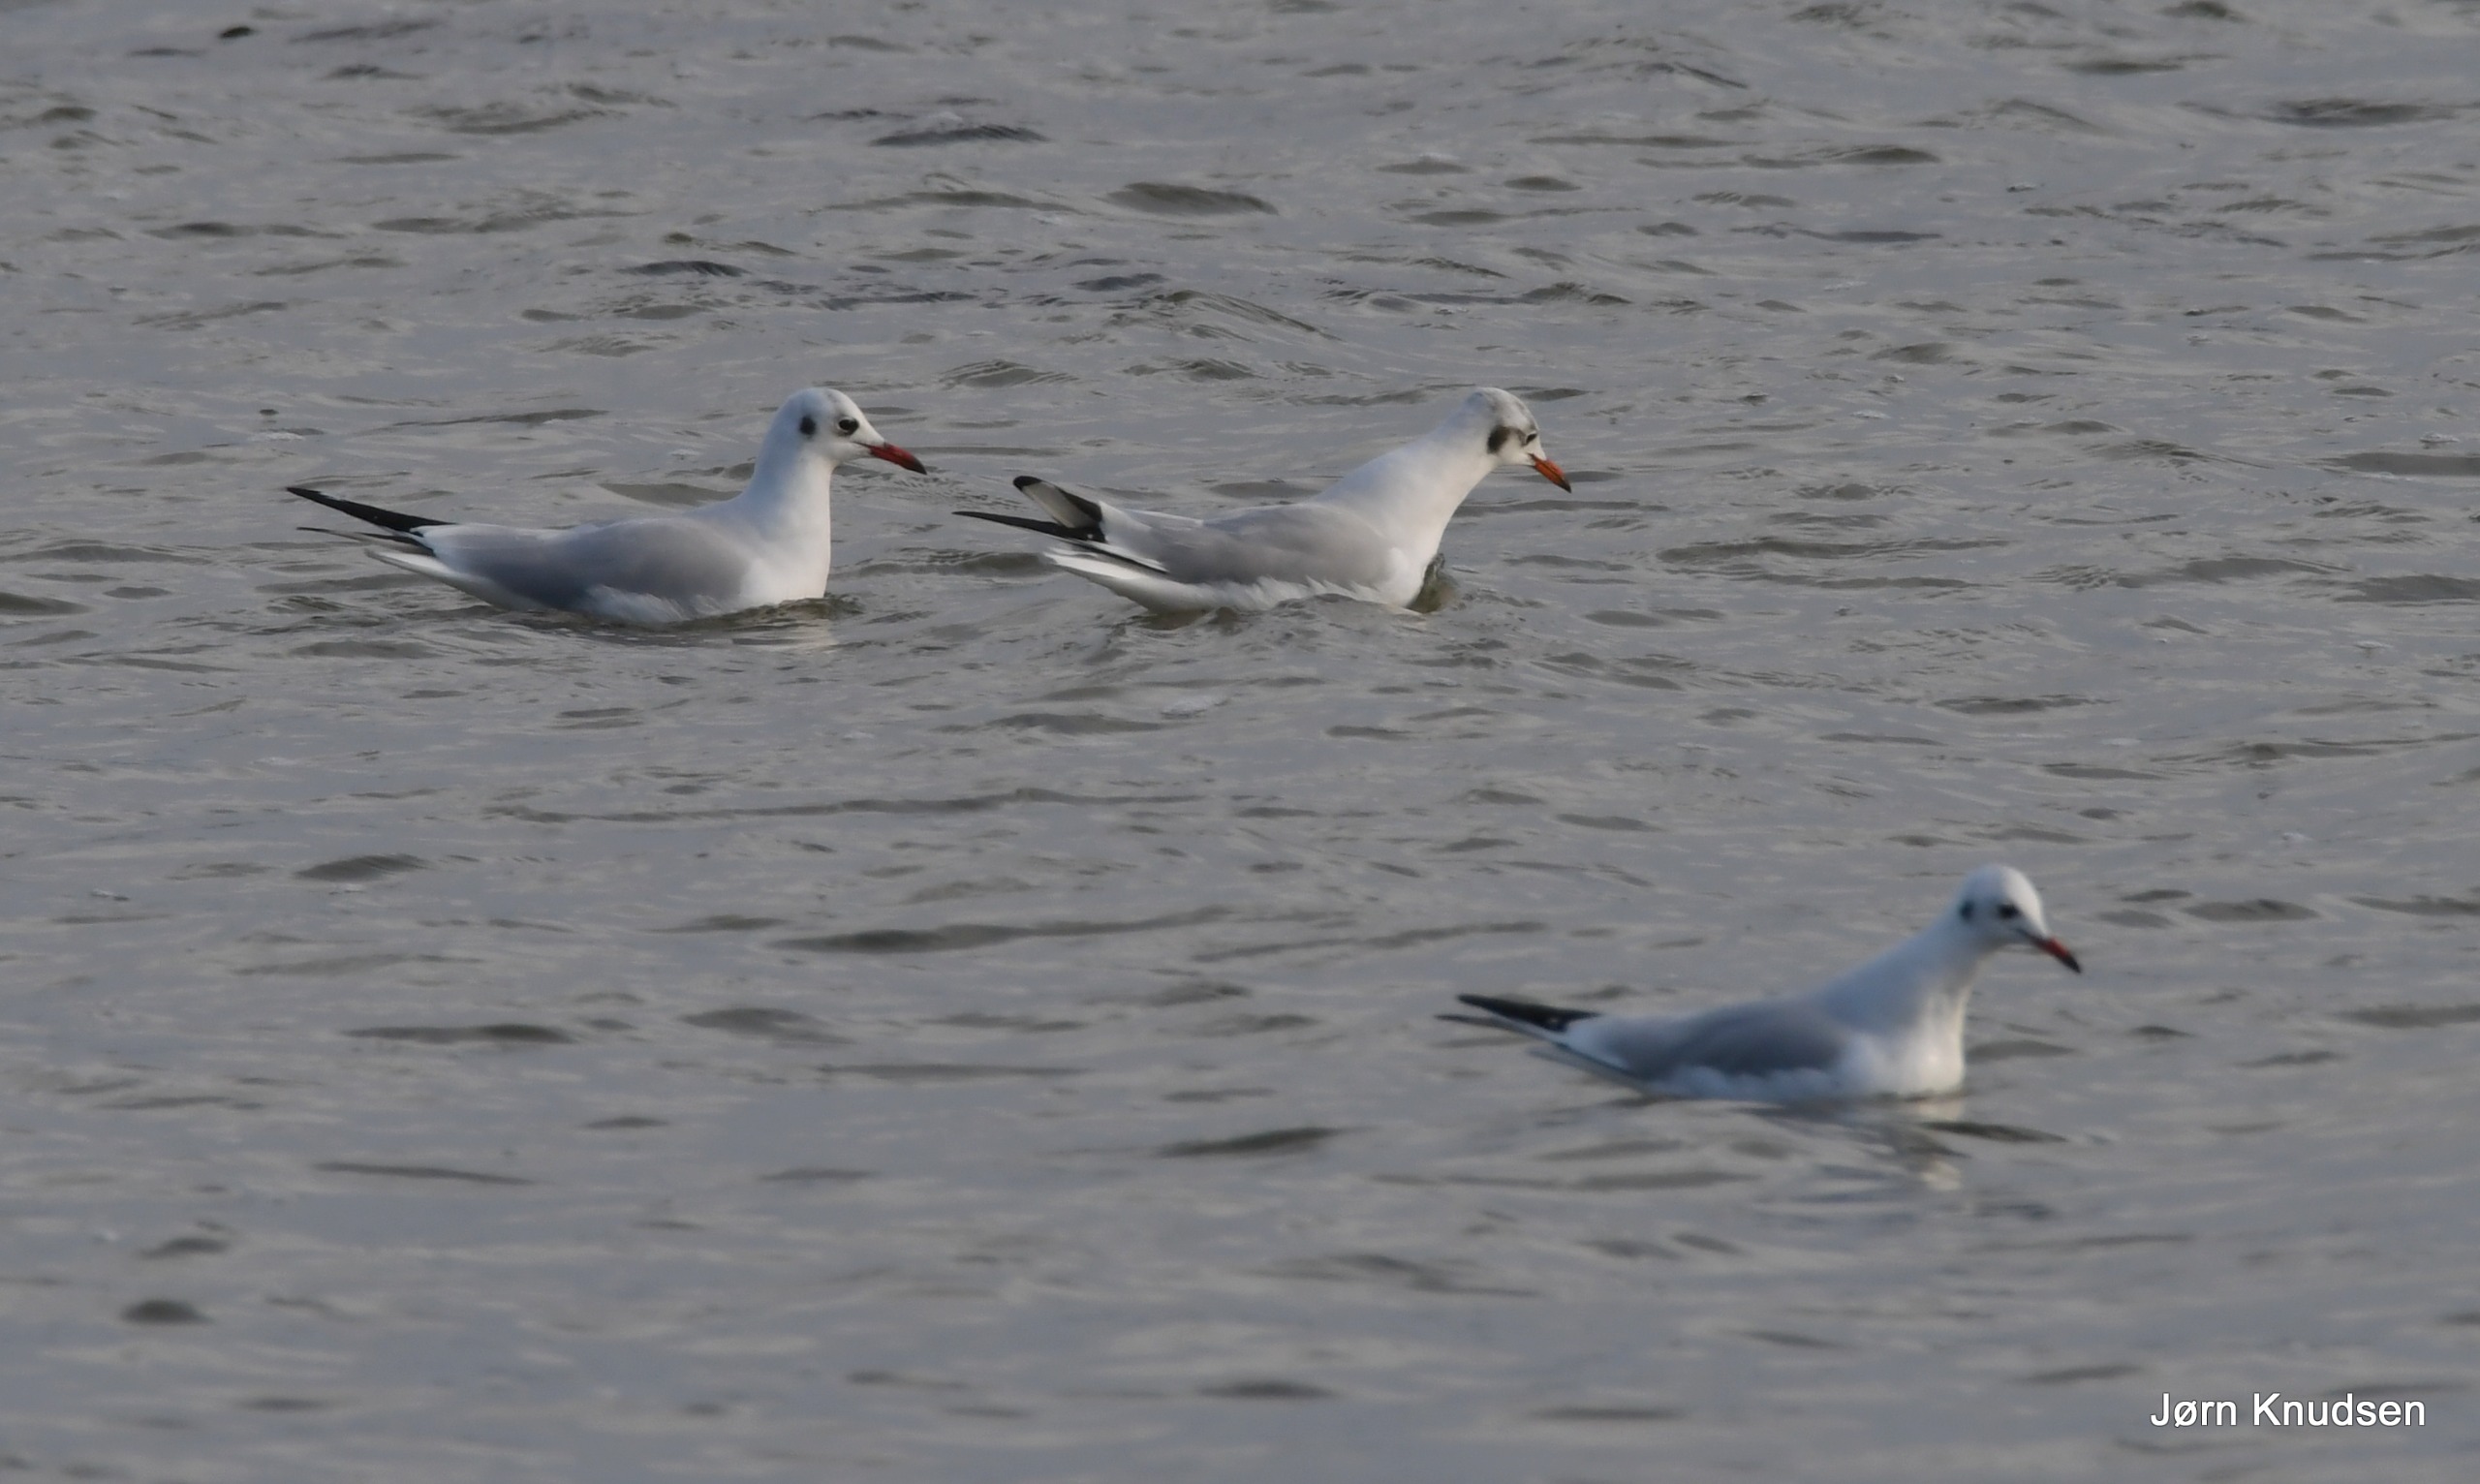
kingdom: Animalia
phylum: Chordata
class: Aves
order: Charadriiformes
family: Laridae
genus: Chroicocephalus
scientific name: Chroicocephalus ridibundus
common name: Hættemåge
